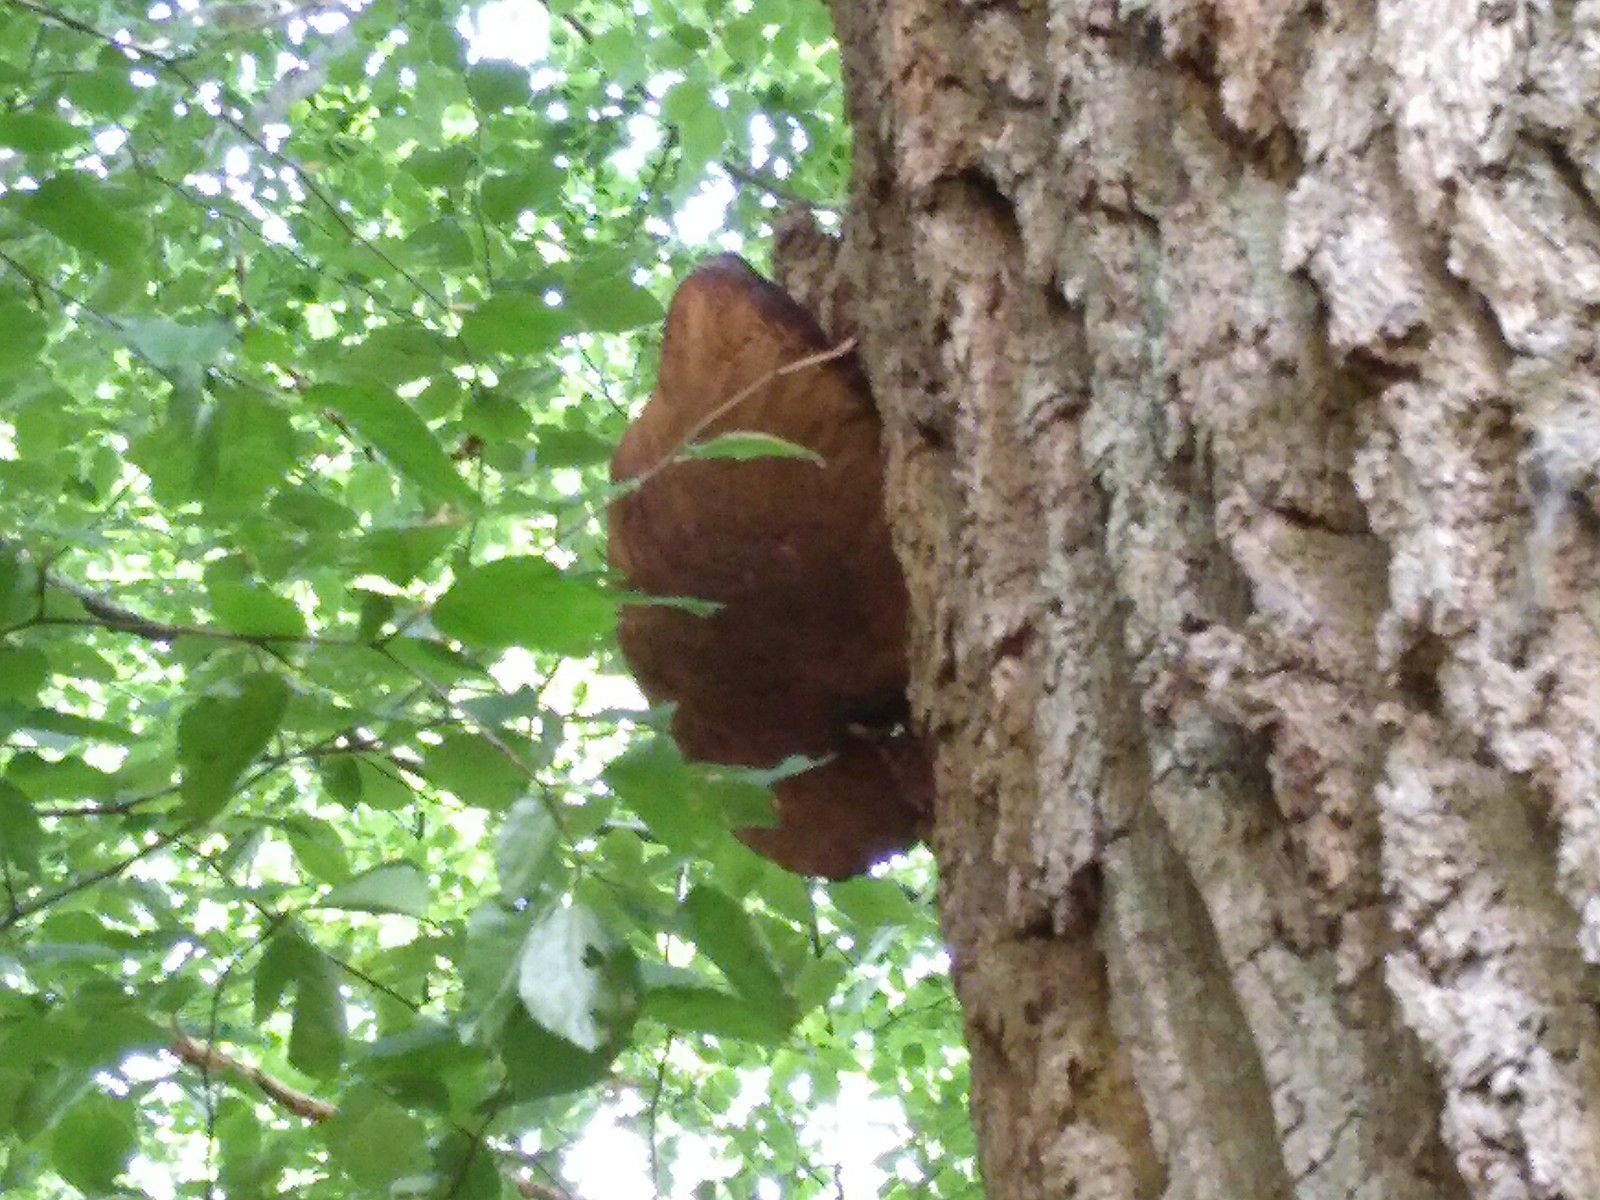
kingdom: Fungi
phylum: Basidiomycota
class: Agaricomycetes
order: Agaricales
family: Fistulinaceae
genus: Fistulina
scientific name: Fistulina hepatica
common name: oksetunge
